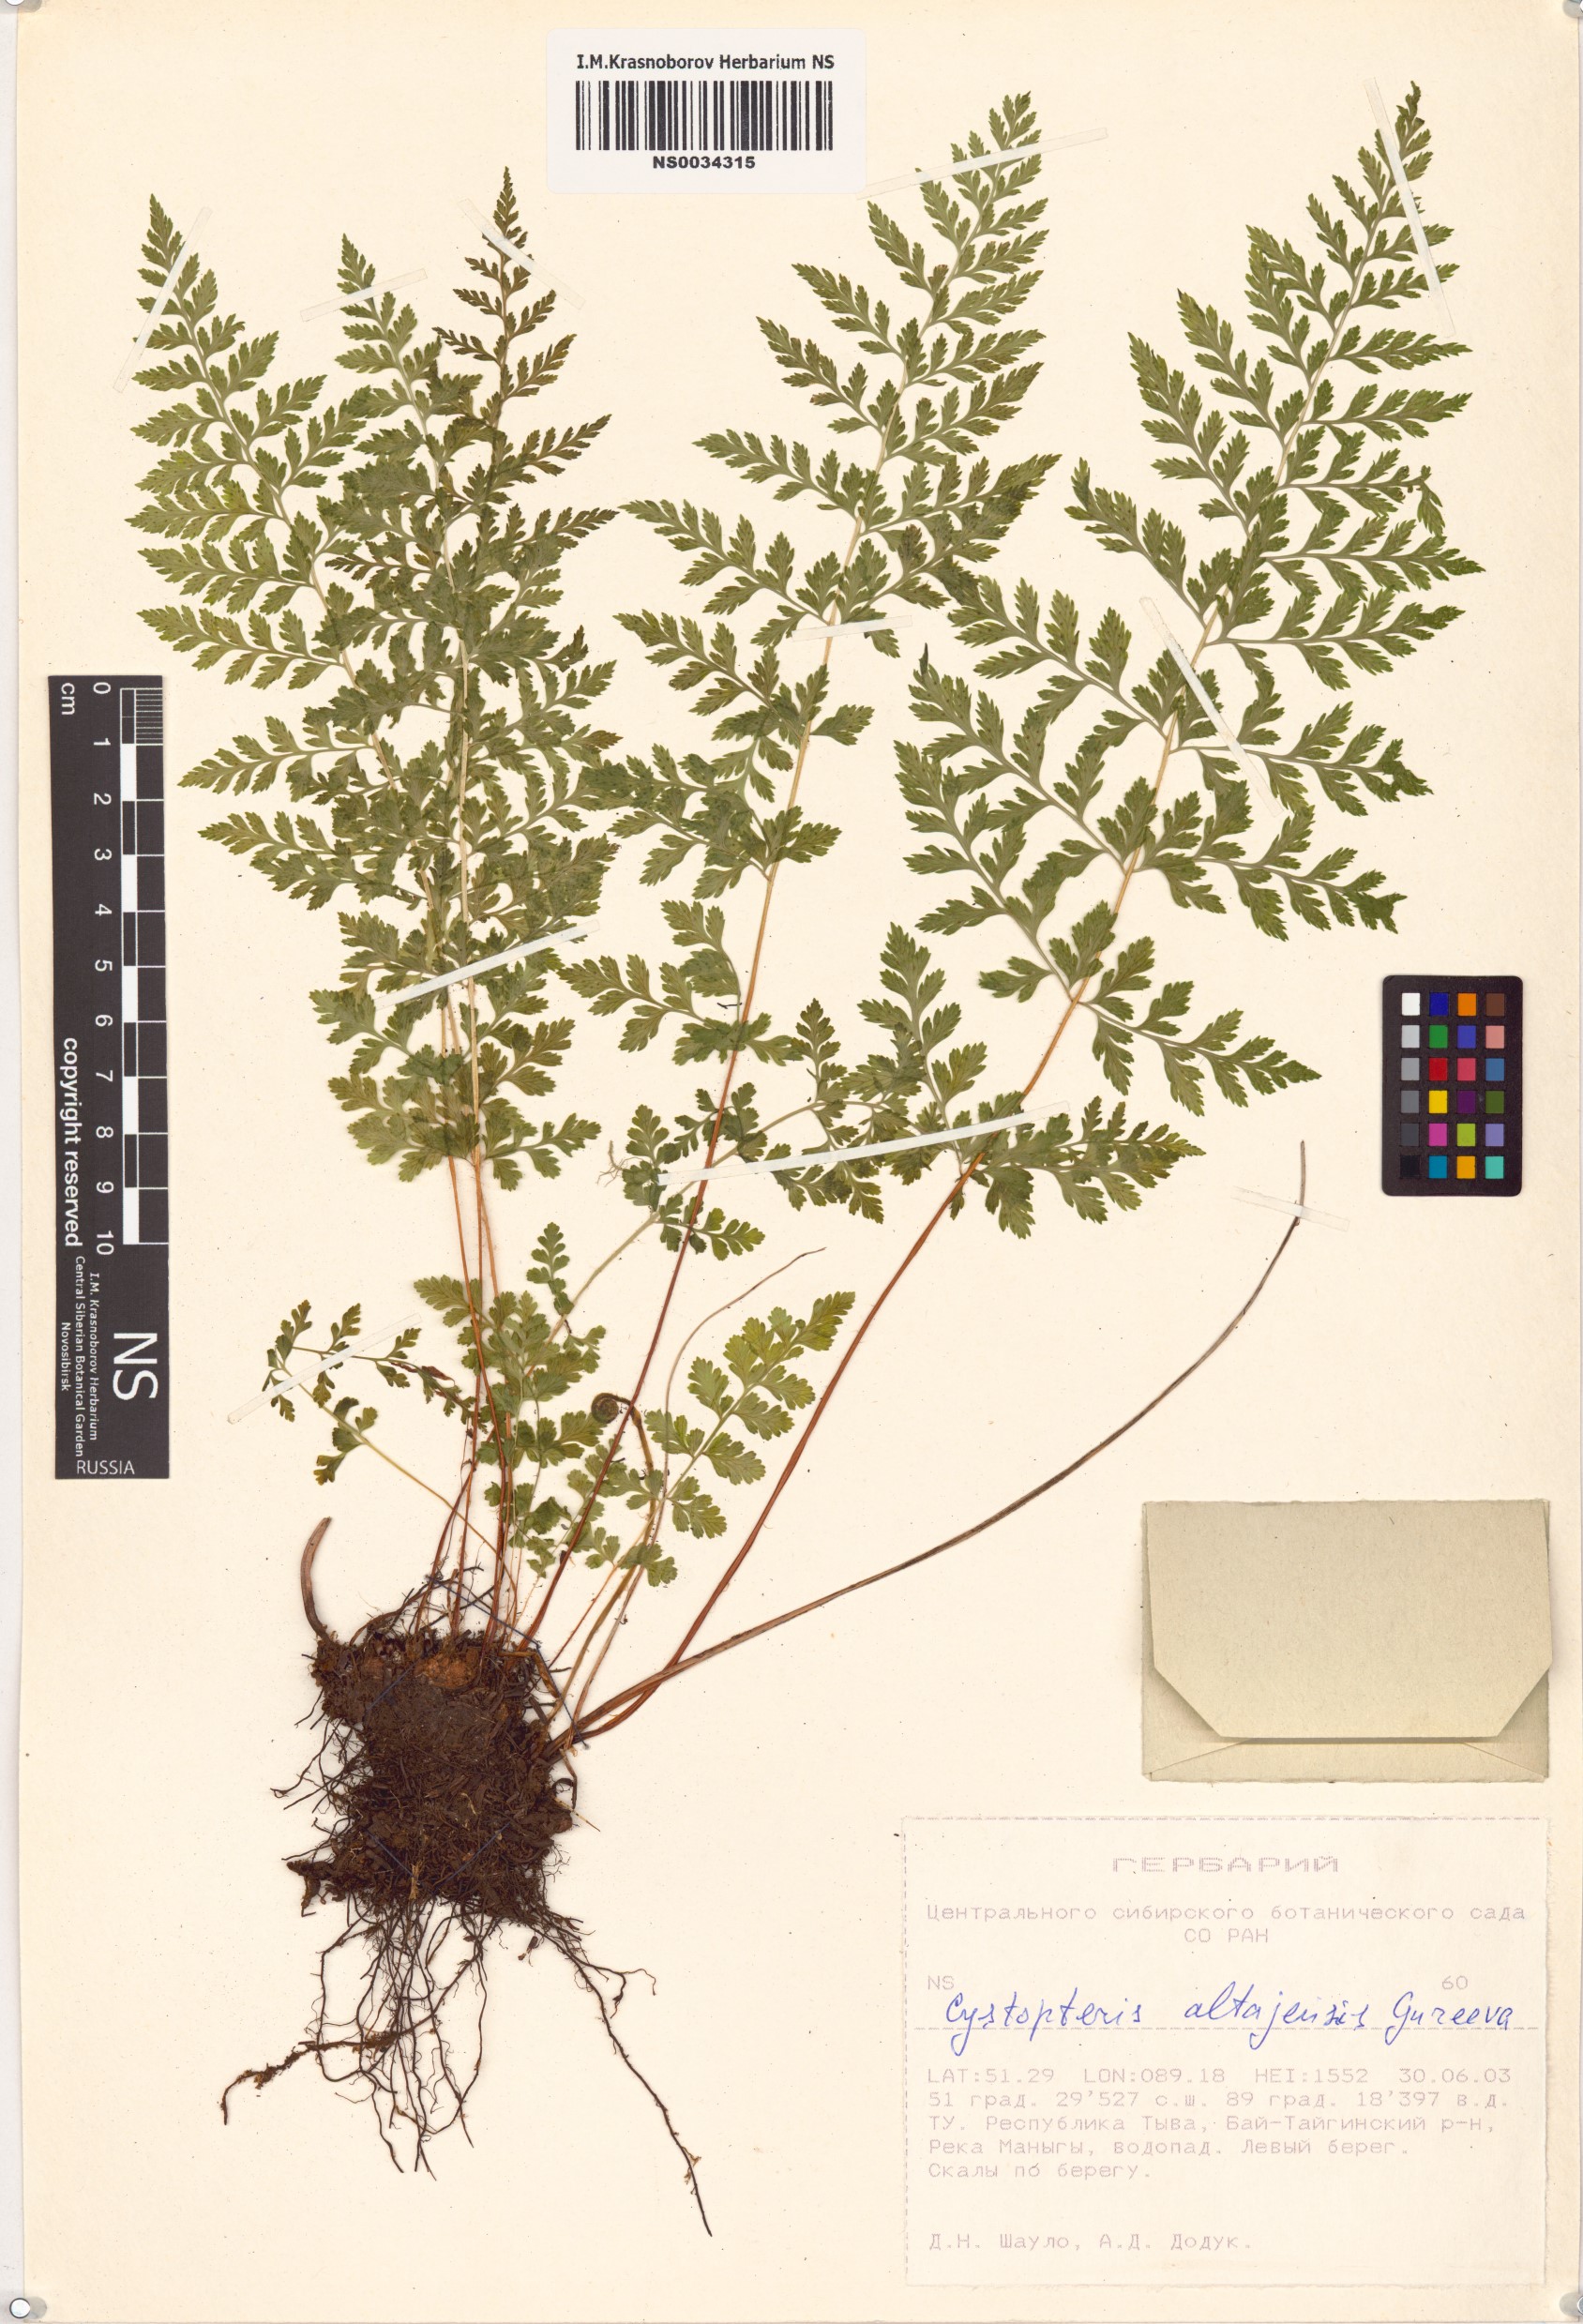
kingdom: Plantae
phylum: Tracheophyta
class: Polypodiopsida
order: Polypodiales
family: Cystopteridaceae
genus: Cystopteris
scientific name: Cystopteris diaphana
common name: Greenish bladder-fern
